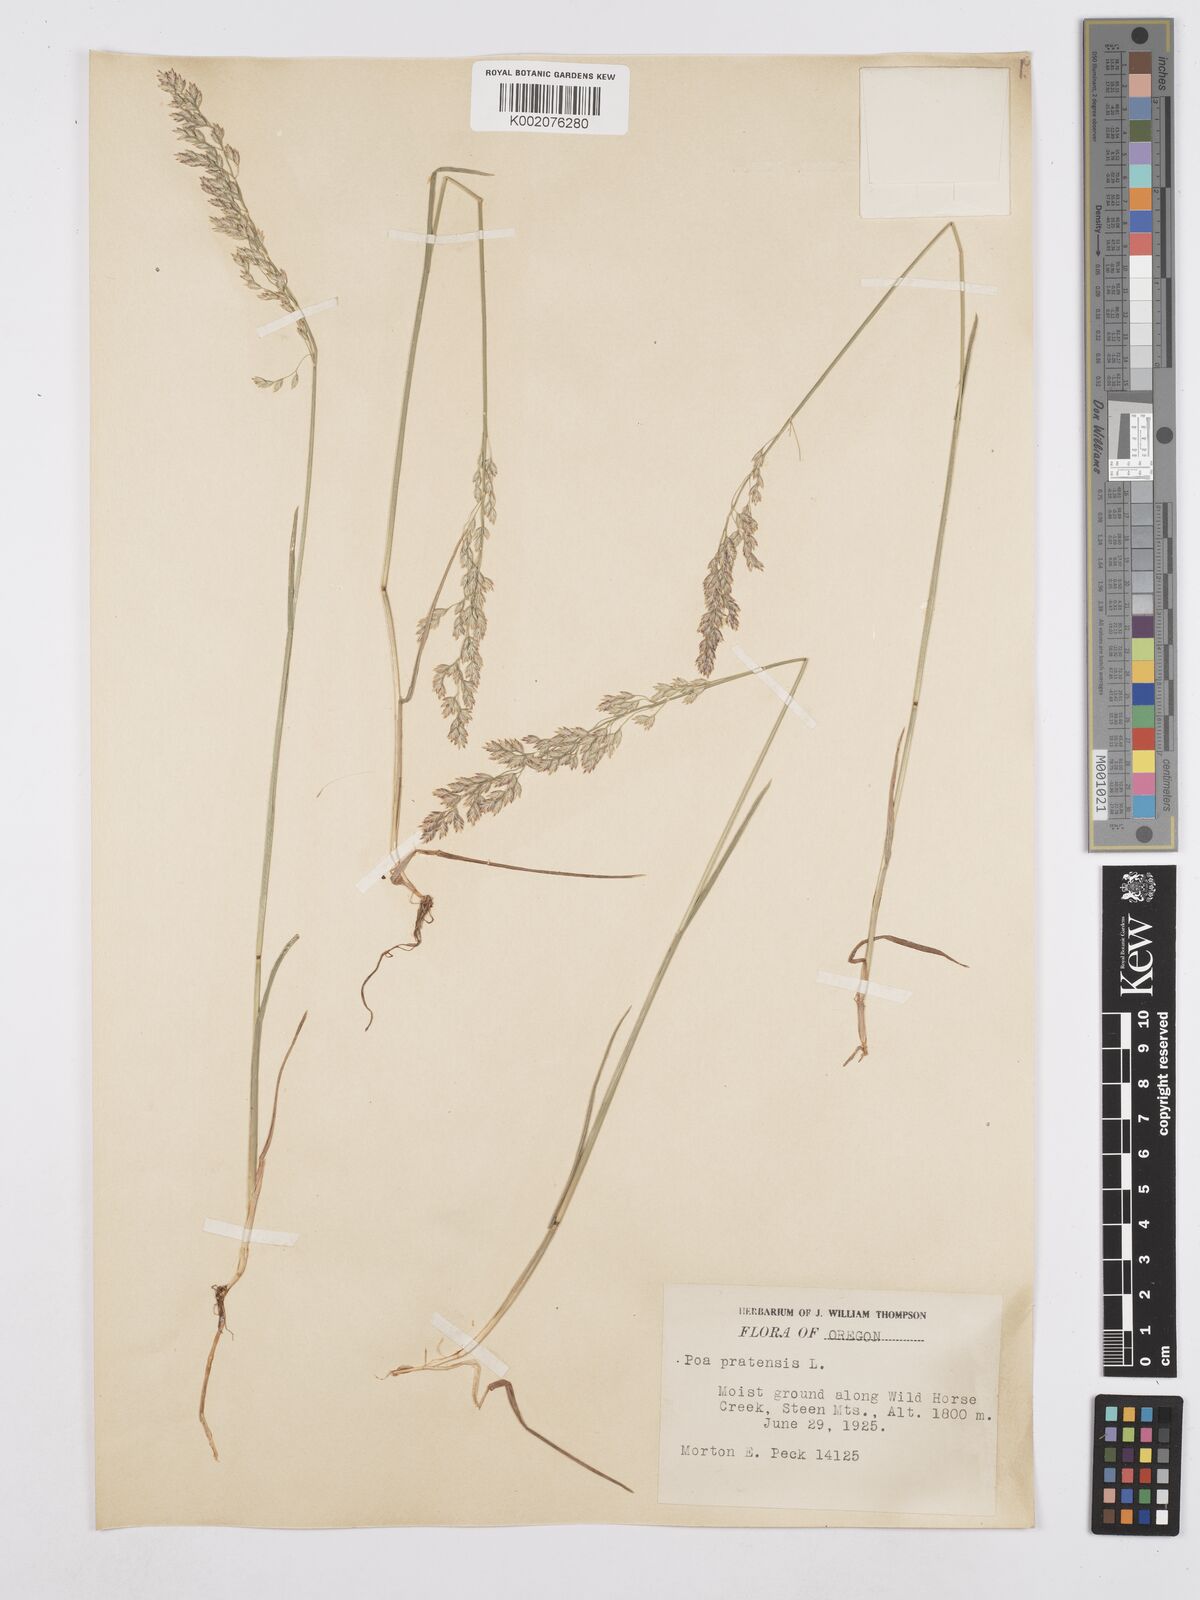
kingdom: Plantae
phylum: Tracheophyta
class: Liliopsida
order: Poales
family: Poaceae
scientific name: Poaceae
